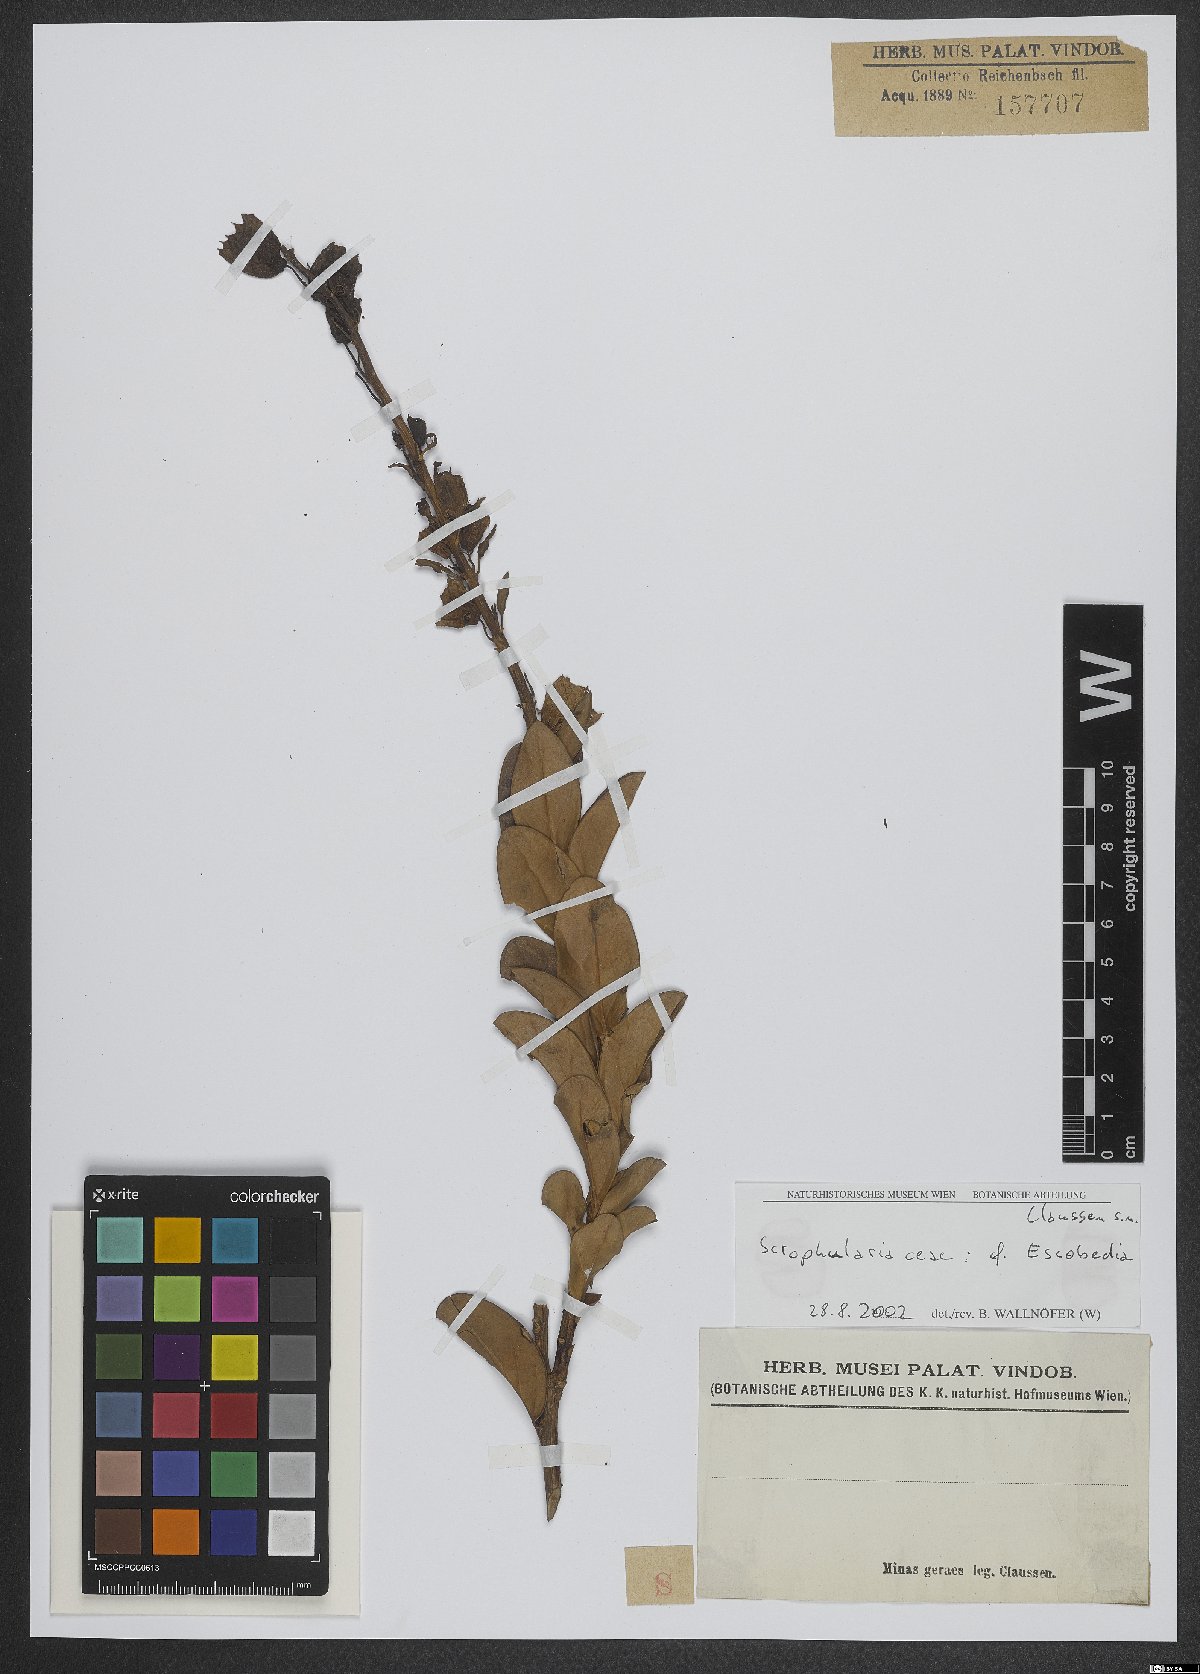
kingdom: Plantae
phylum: Tracheophyta
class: Magnoliopsida
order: Lamiales
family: Orobanchaceae
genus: Escobedia
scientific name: Escobedia
